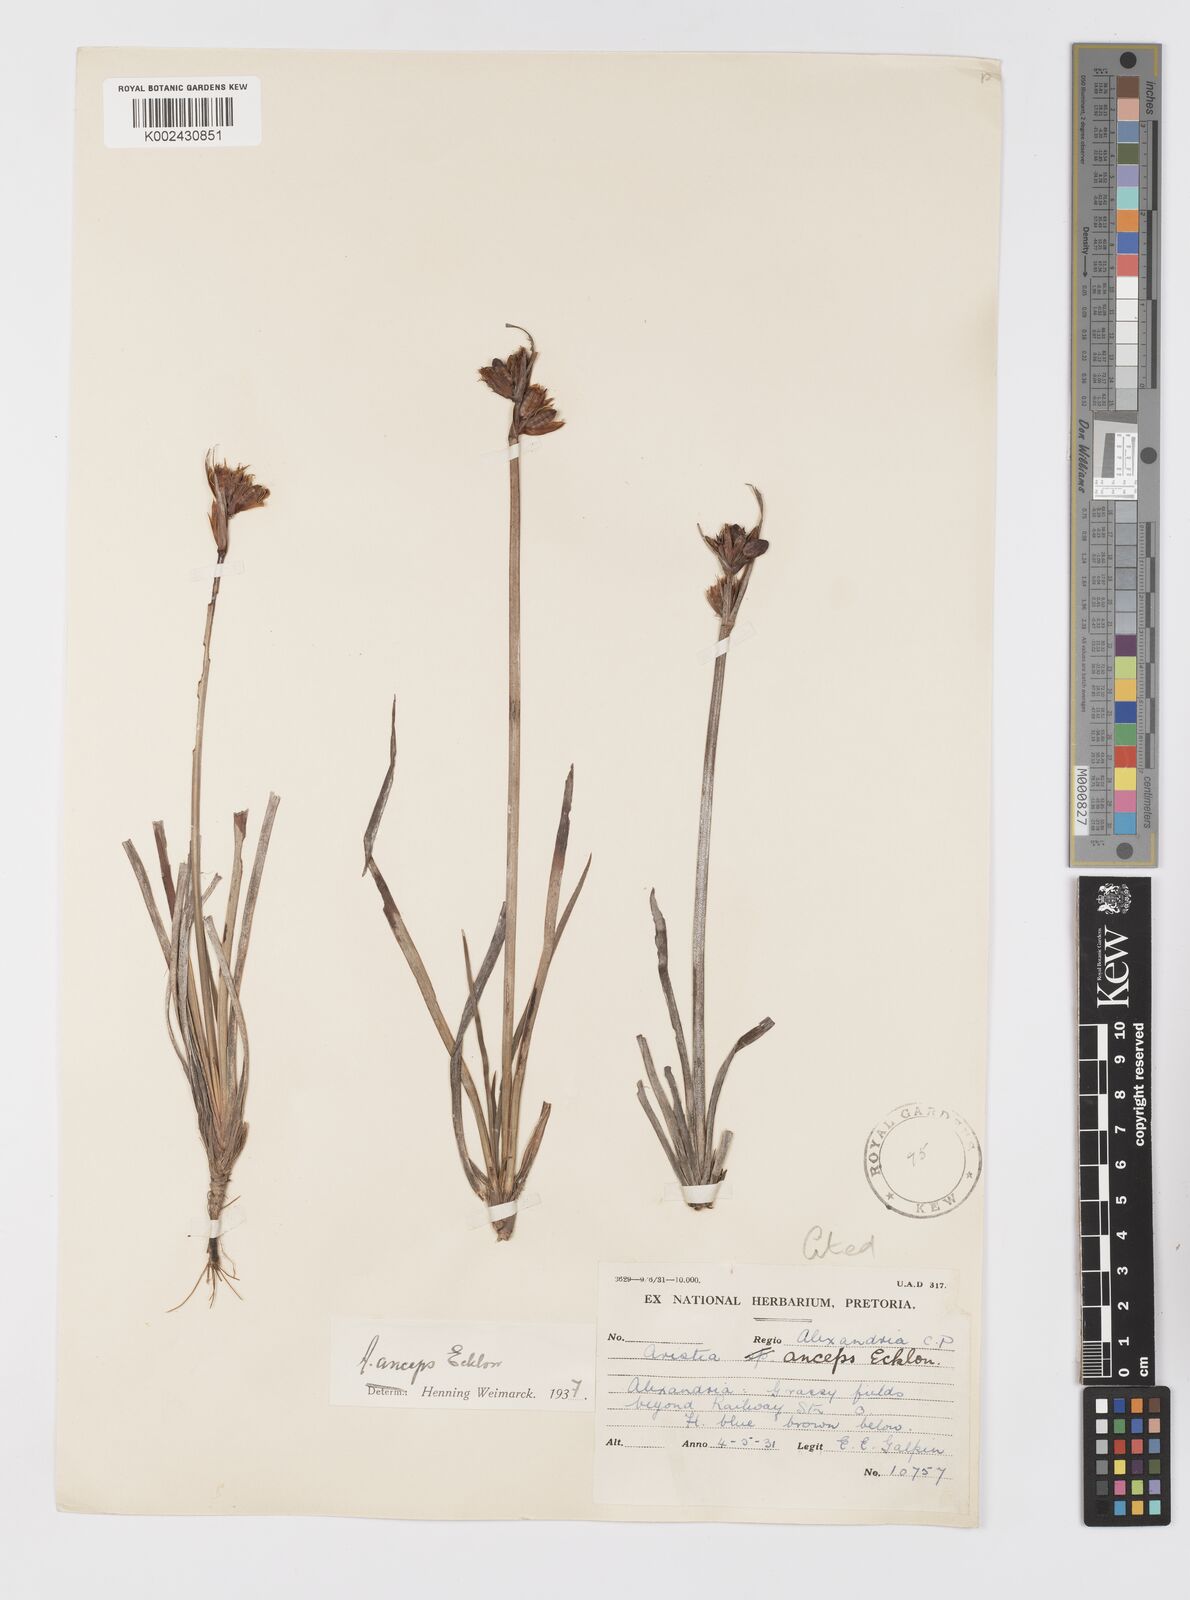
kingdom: Plantae
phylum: Tracheophyta
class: Liliopsida
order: Asparagales
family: Iridaceae
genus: Aristea
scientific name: Aristea anceps
